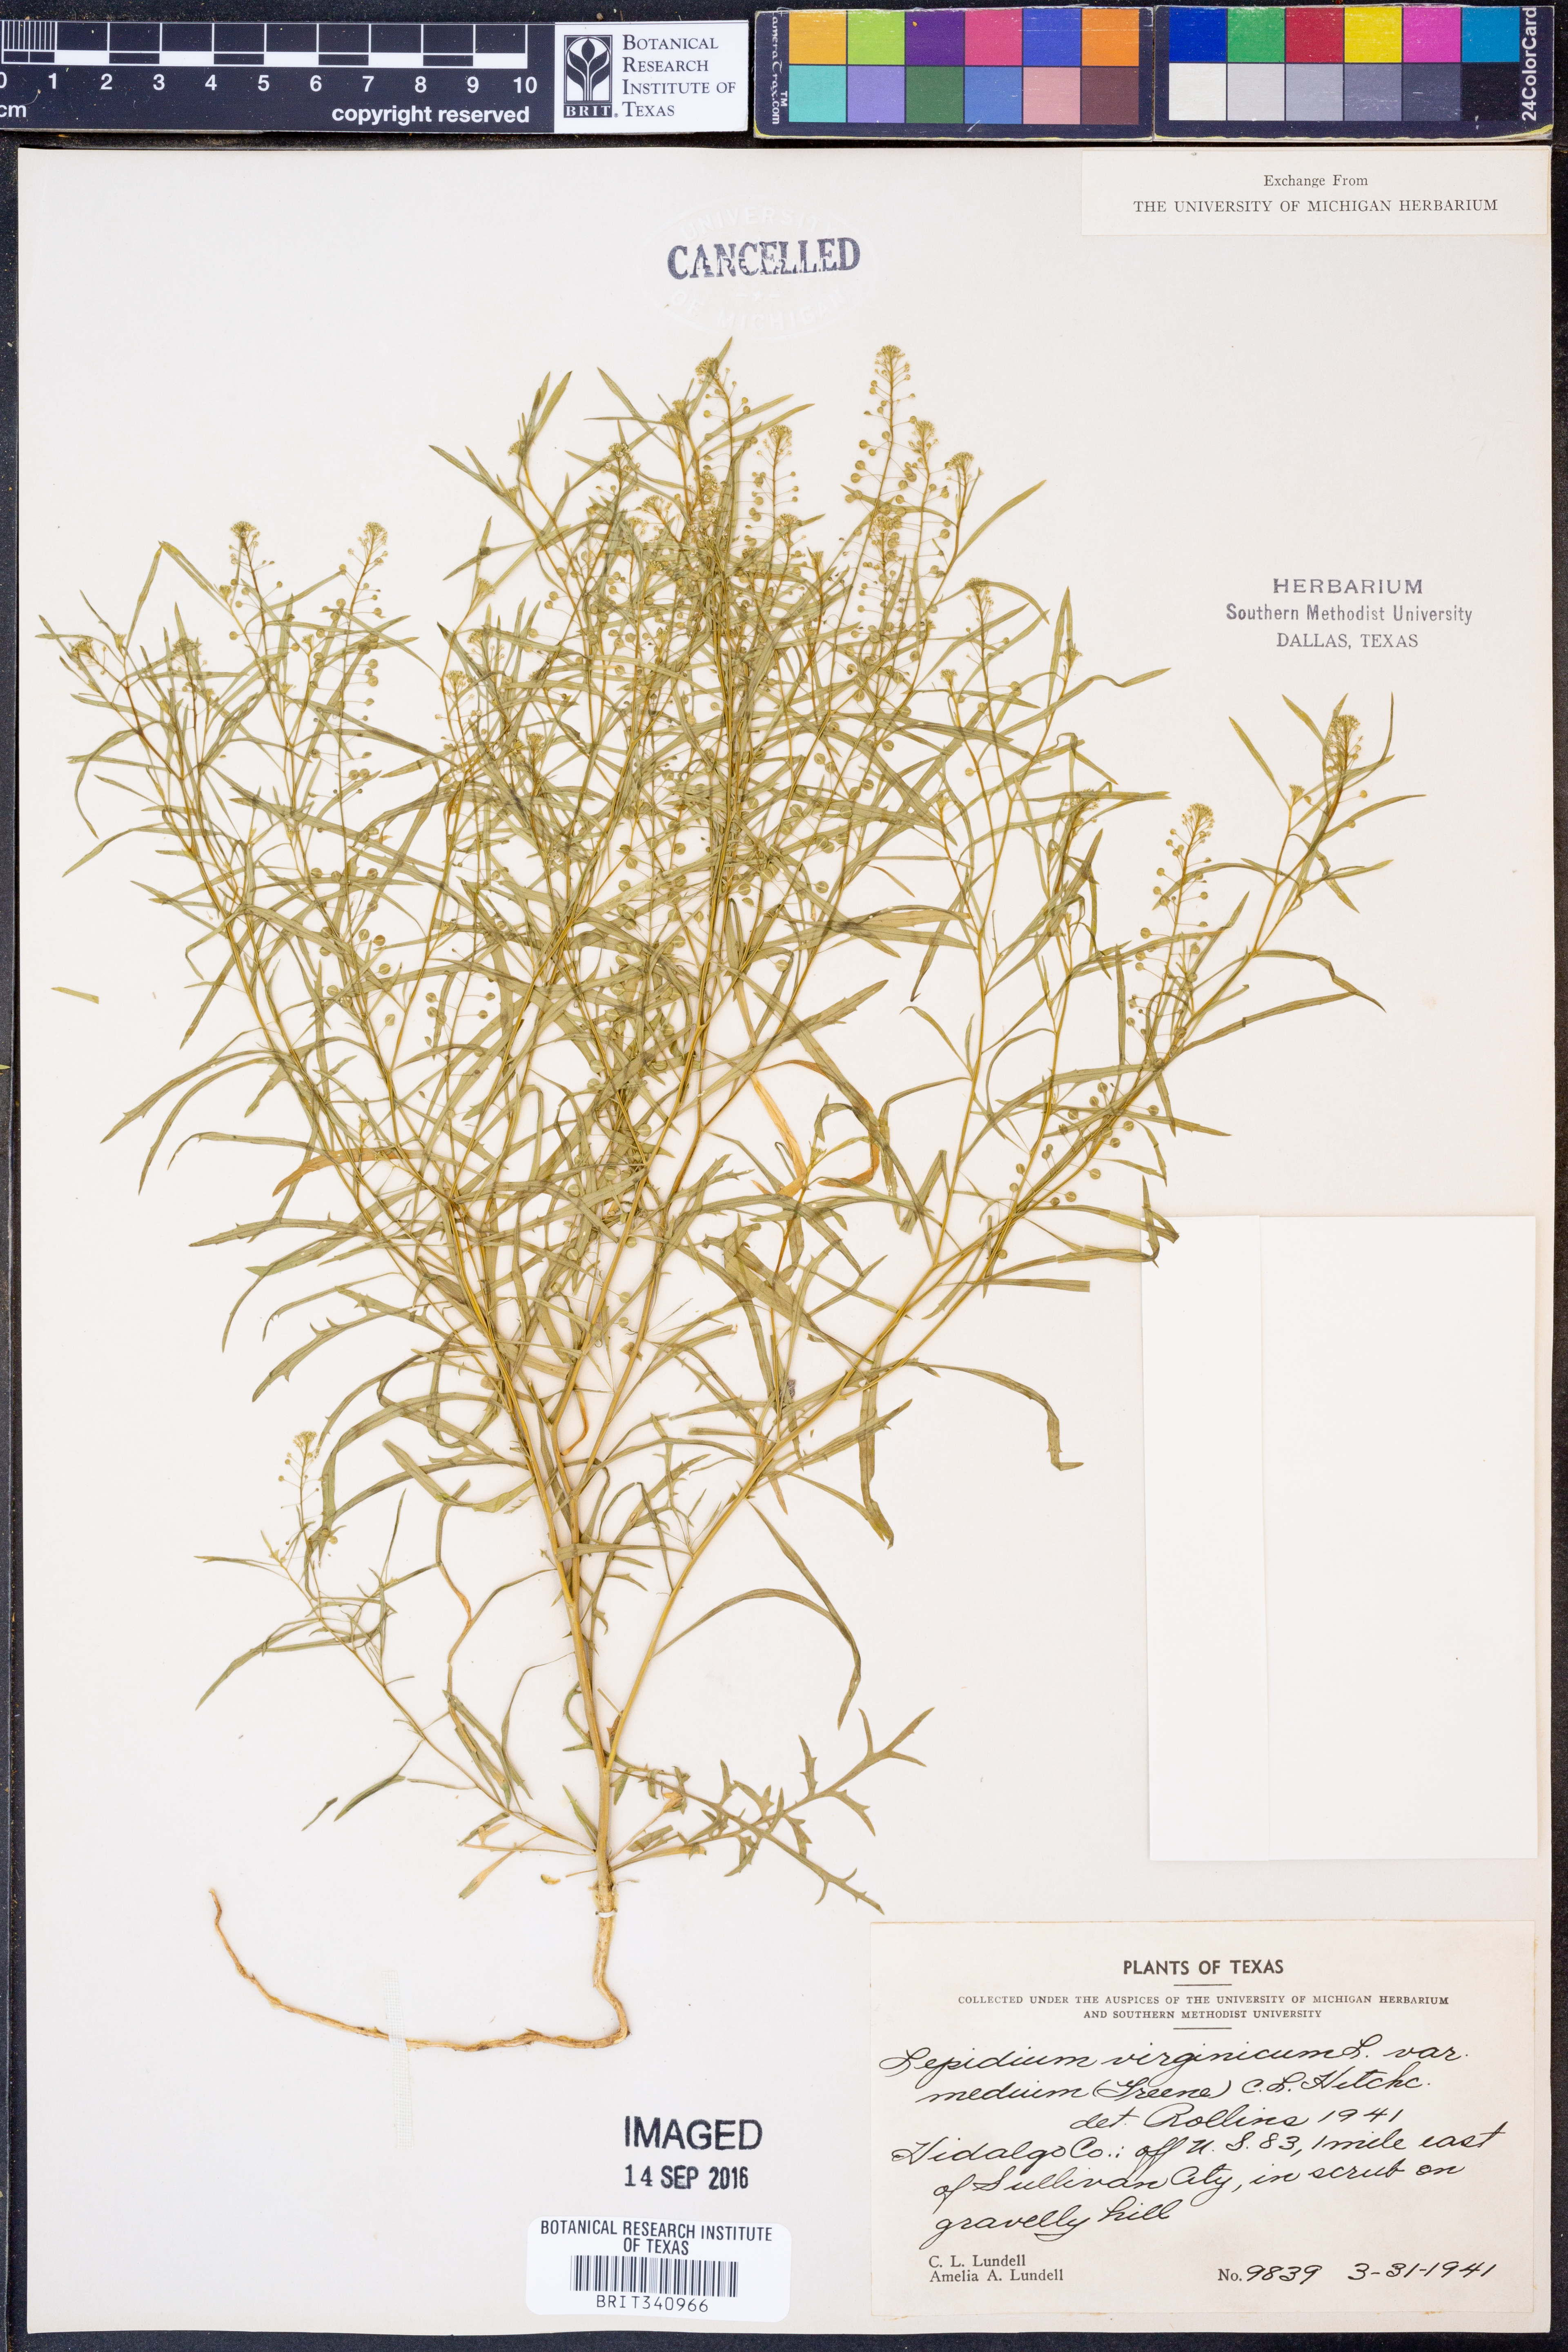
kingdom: Plantae
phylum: Tracheophyta
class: Magnoliopsida
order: Brassicales
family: Brassicaceae
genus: Lepidium
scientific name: Lepidium virginicum
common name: Least pepperwort
